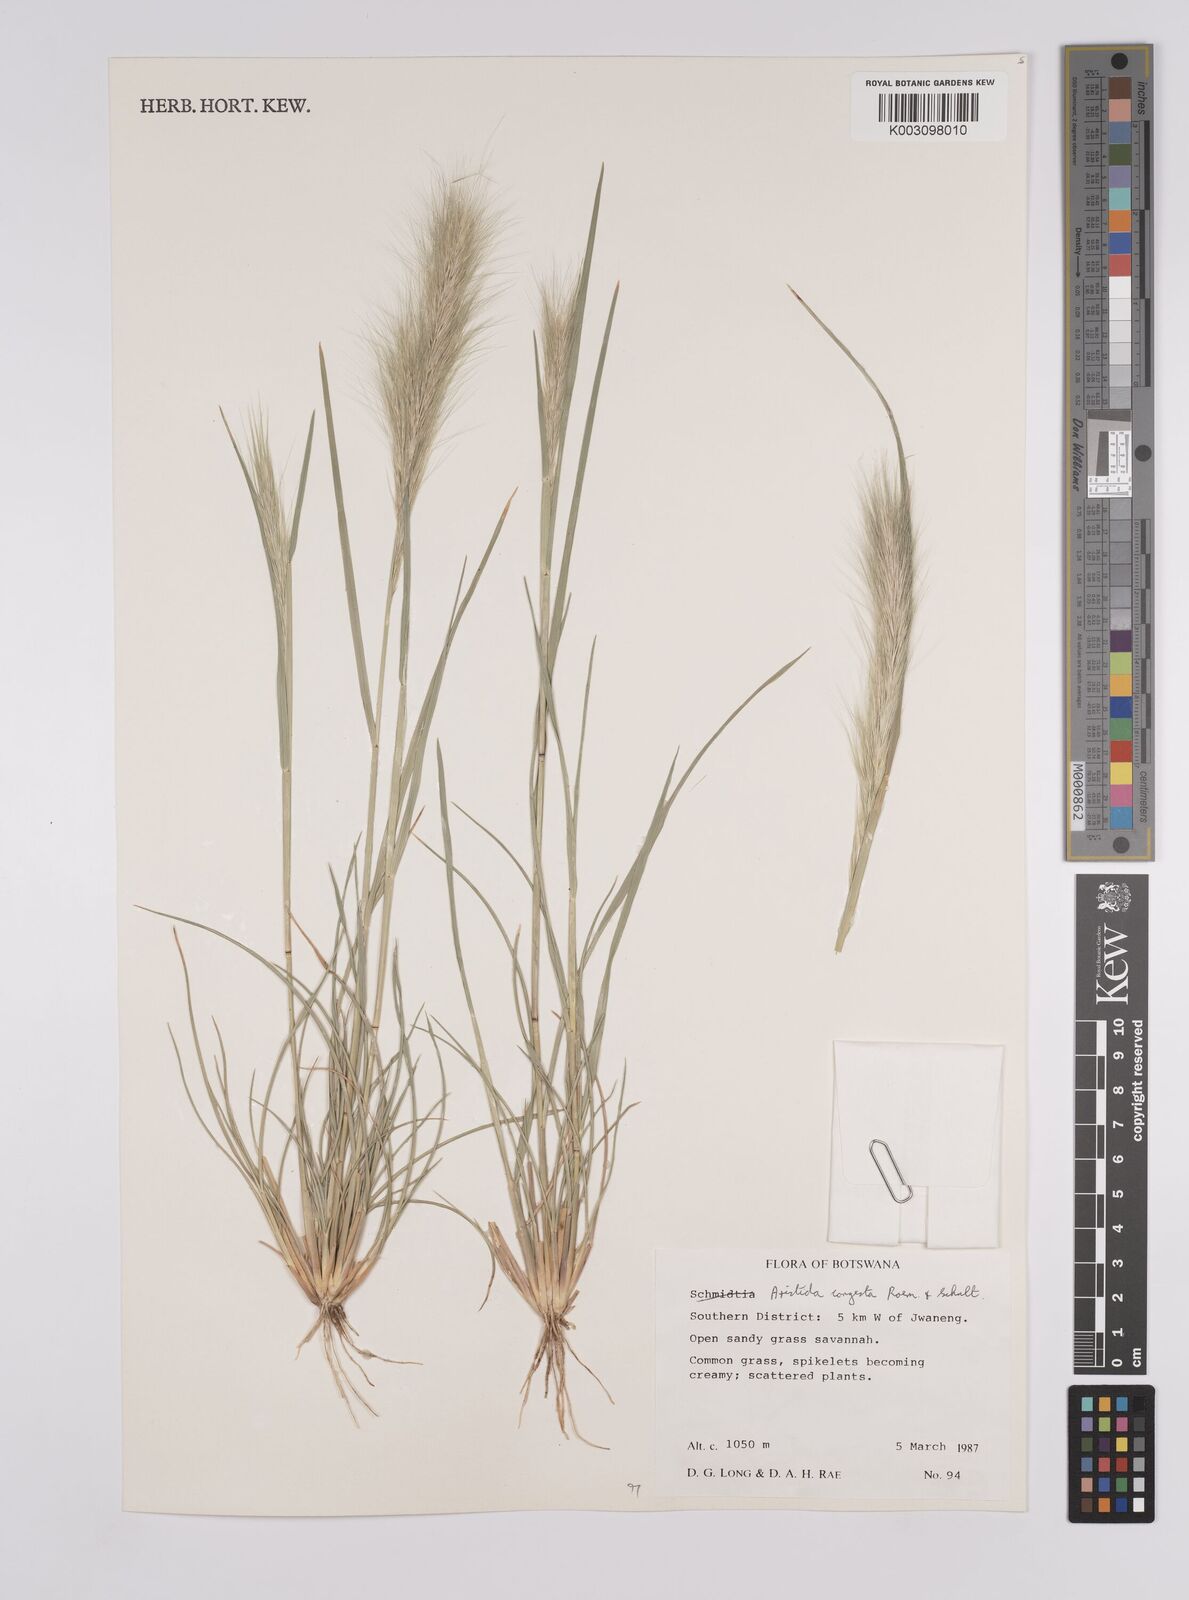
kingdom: Plantae
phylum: Tracheophyta
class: Liliopsida
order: Poales
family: Poaceae
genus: Aristida
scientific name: Aristida congesta
